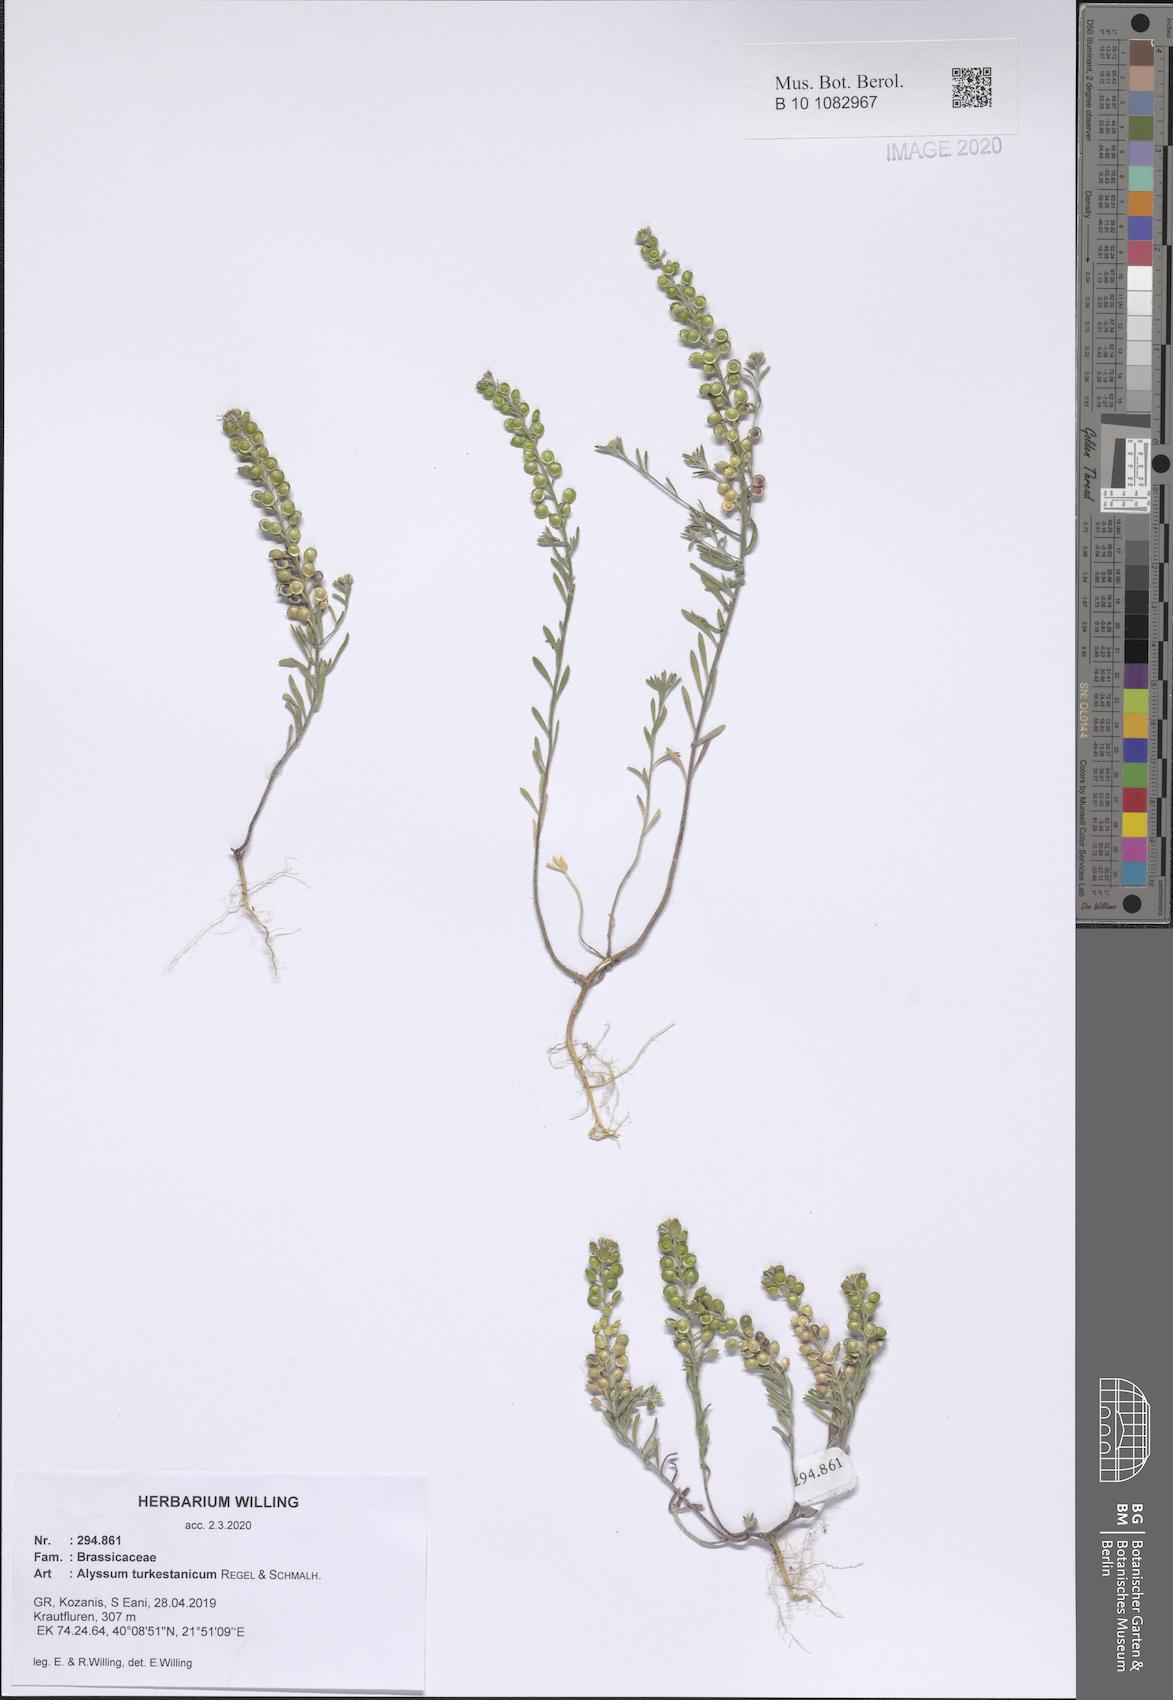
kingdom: Plantae
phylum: Tracheophyta
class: Magnoliopsida
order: Brassicales
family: Brassicaceae
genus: Alyssum
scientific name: Alyssum turkestanicum
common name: Desert alyssum
